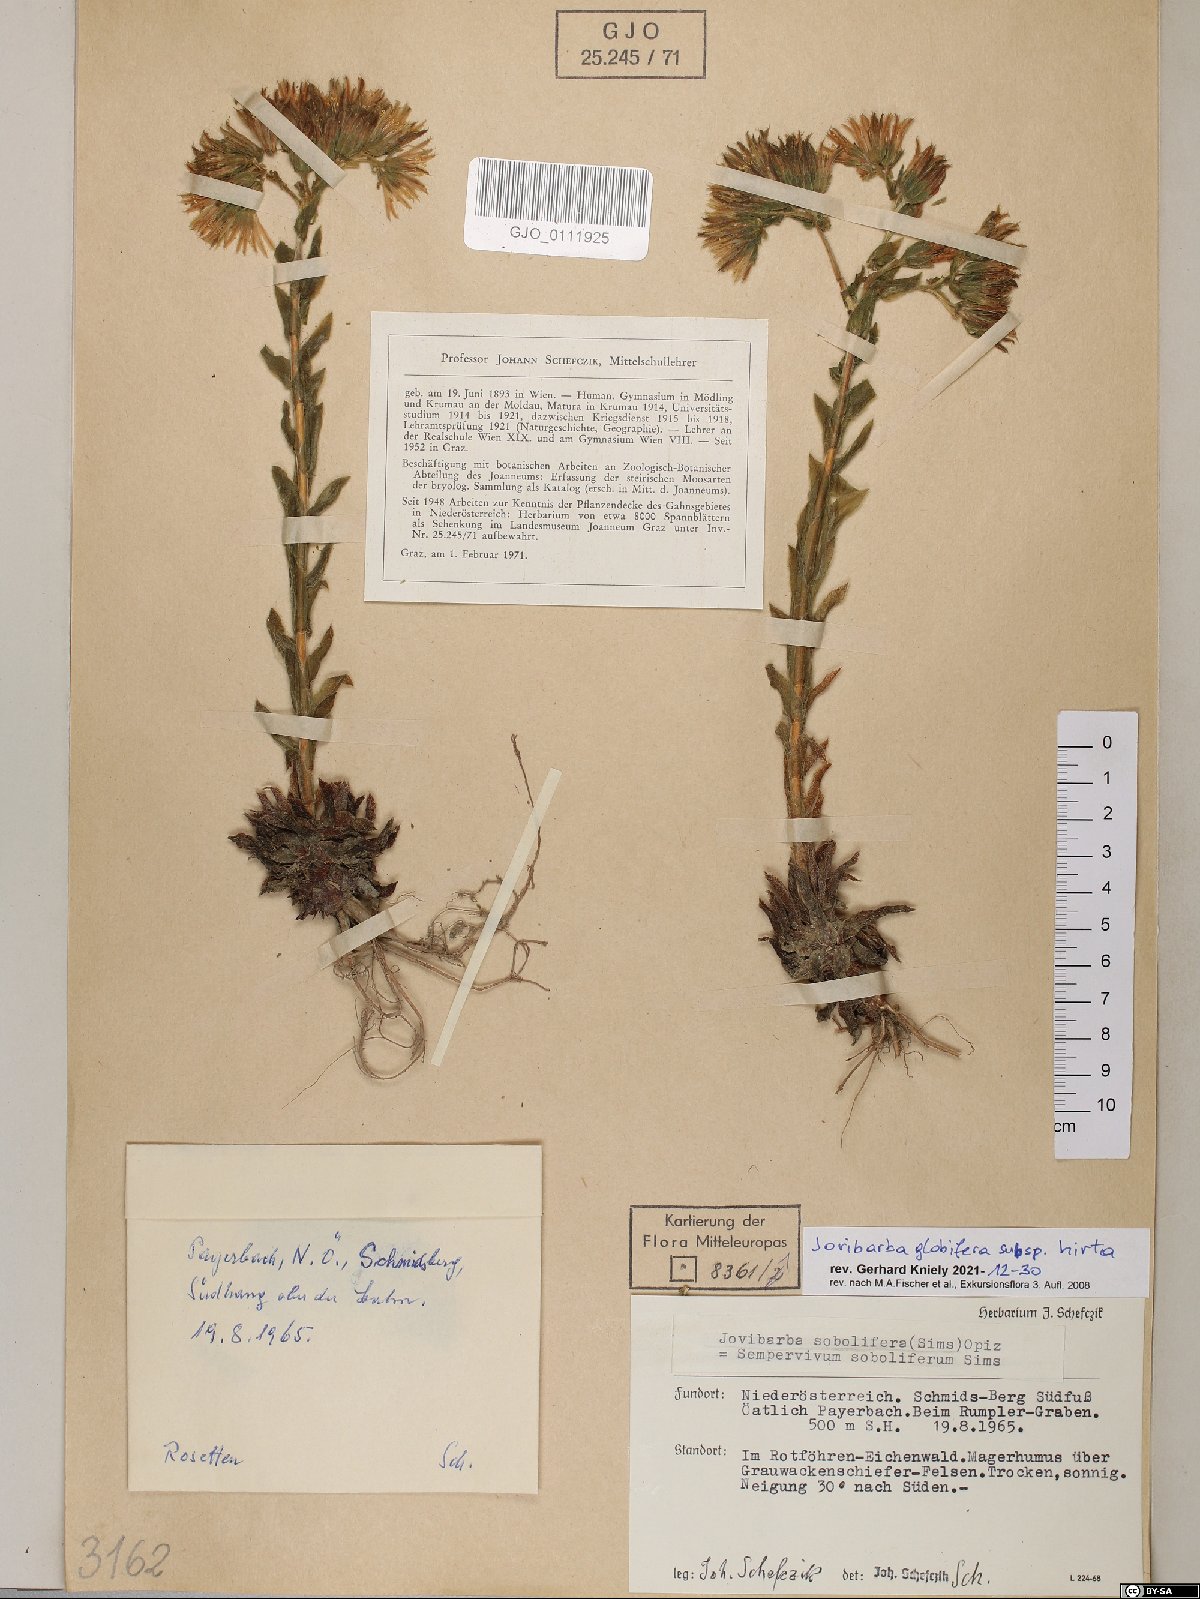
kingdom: Plantae
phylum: Tracheophyta
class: Magnoliopsida
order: Saxifragales
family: Crassulaceae
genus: Sempervivum
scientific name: Sempervivum globiferum
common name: Rolling hen-and-chicks
